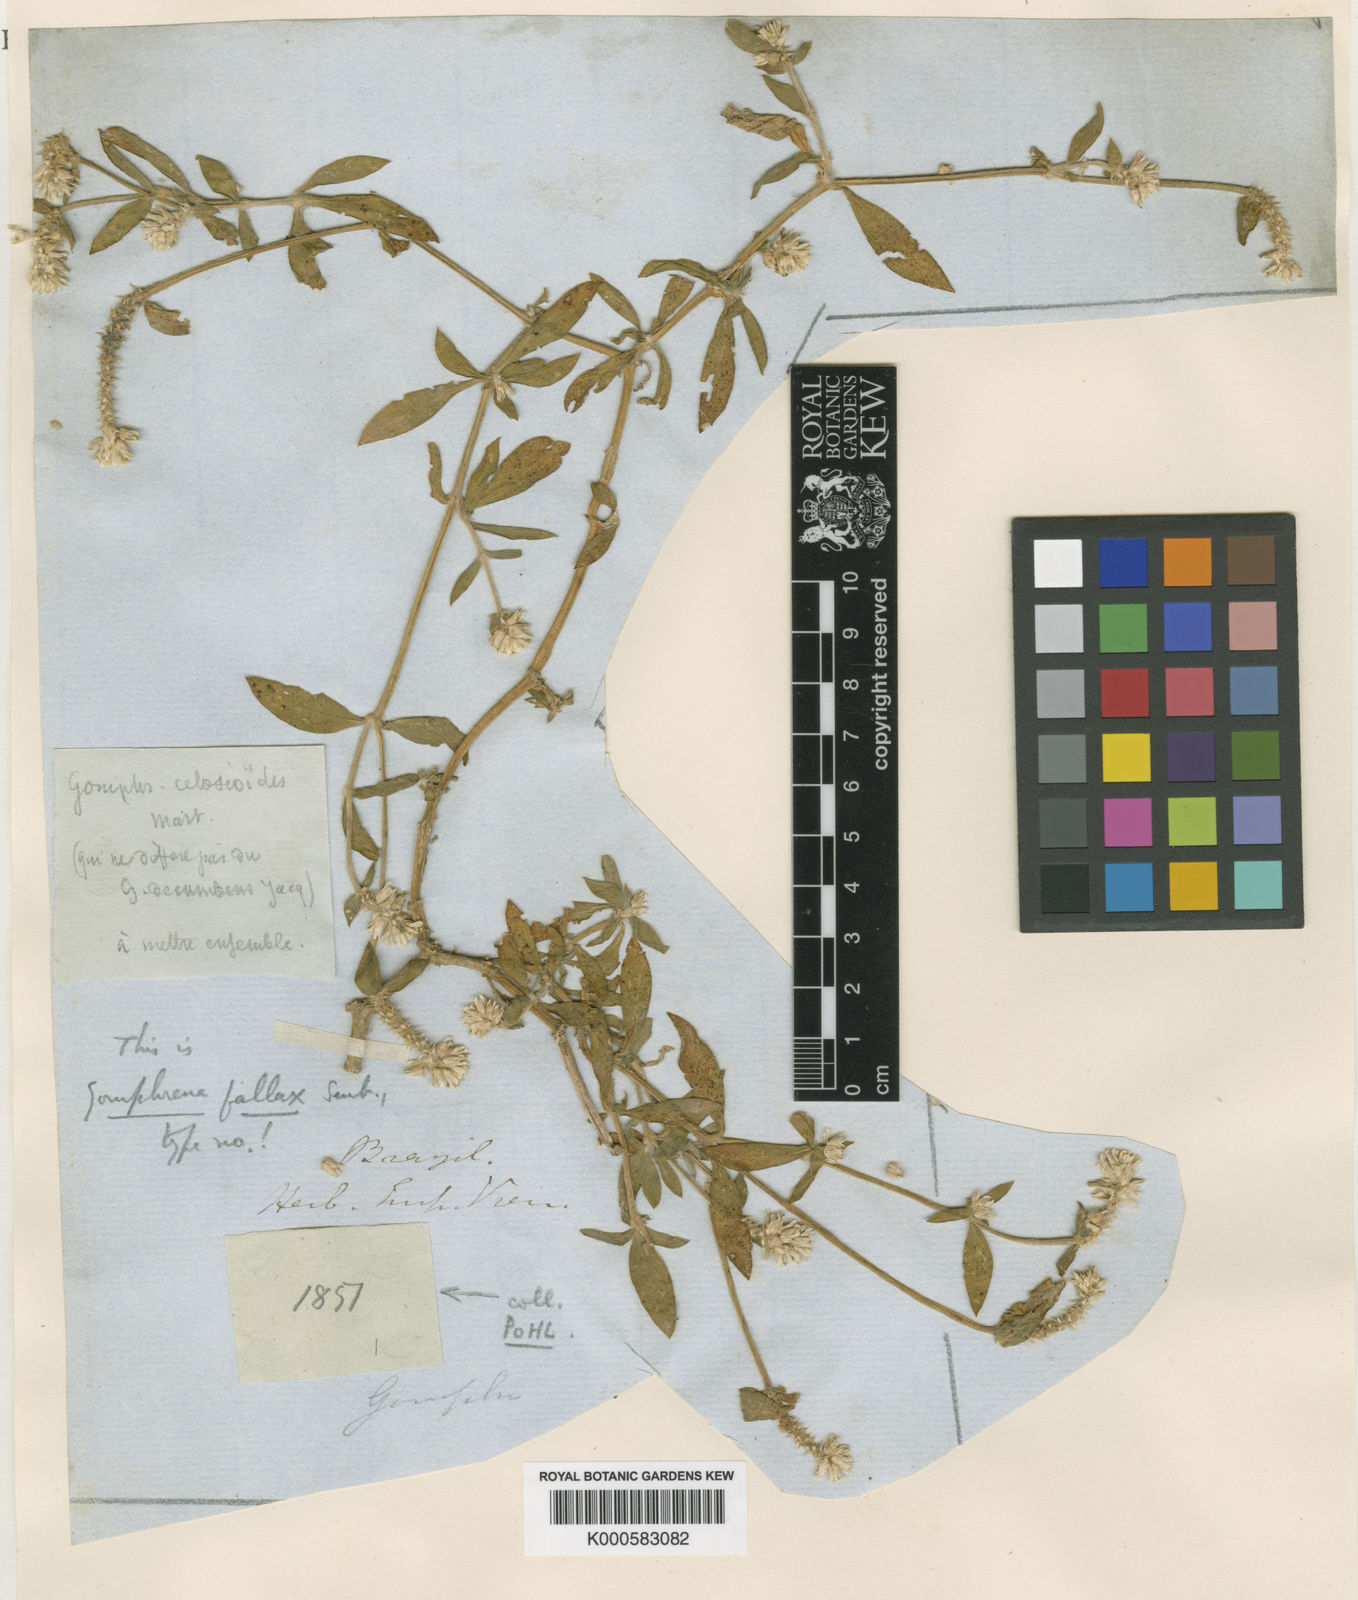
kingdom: Plantae
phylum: Tracheophyta
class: Magnoliopsida
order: Caryophyllales
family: Amaranthaceae
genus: Gomphrena
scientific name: Gomphrena
